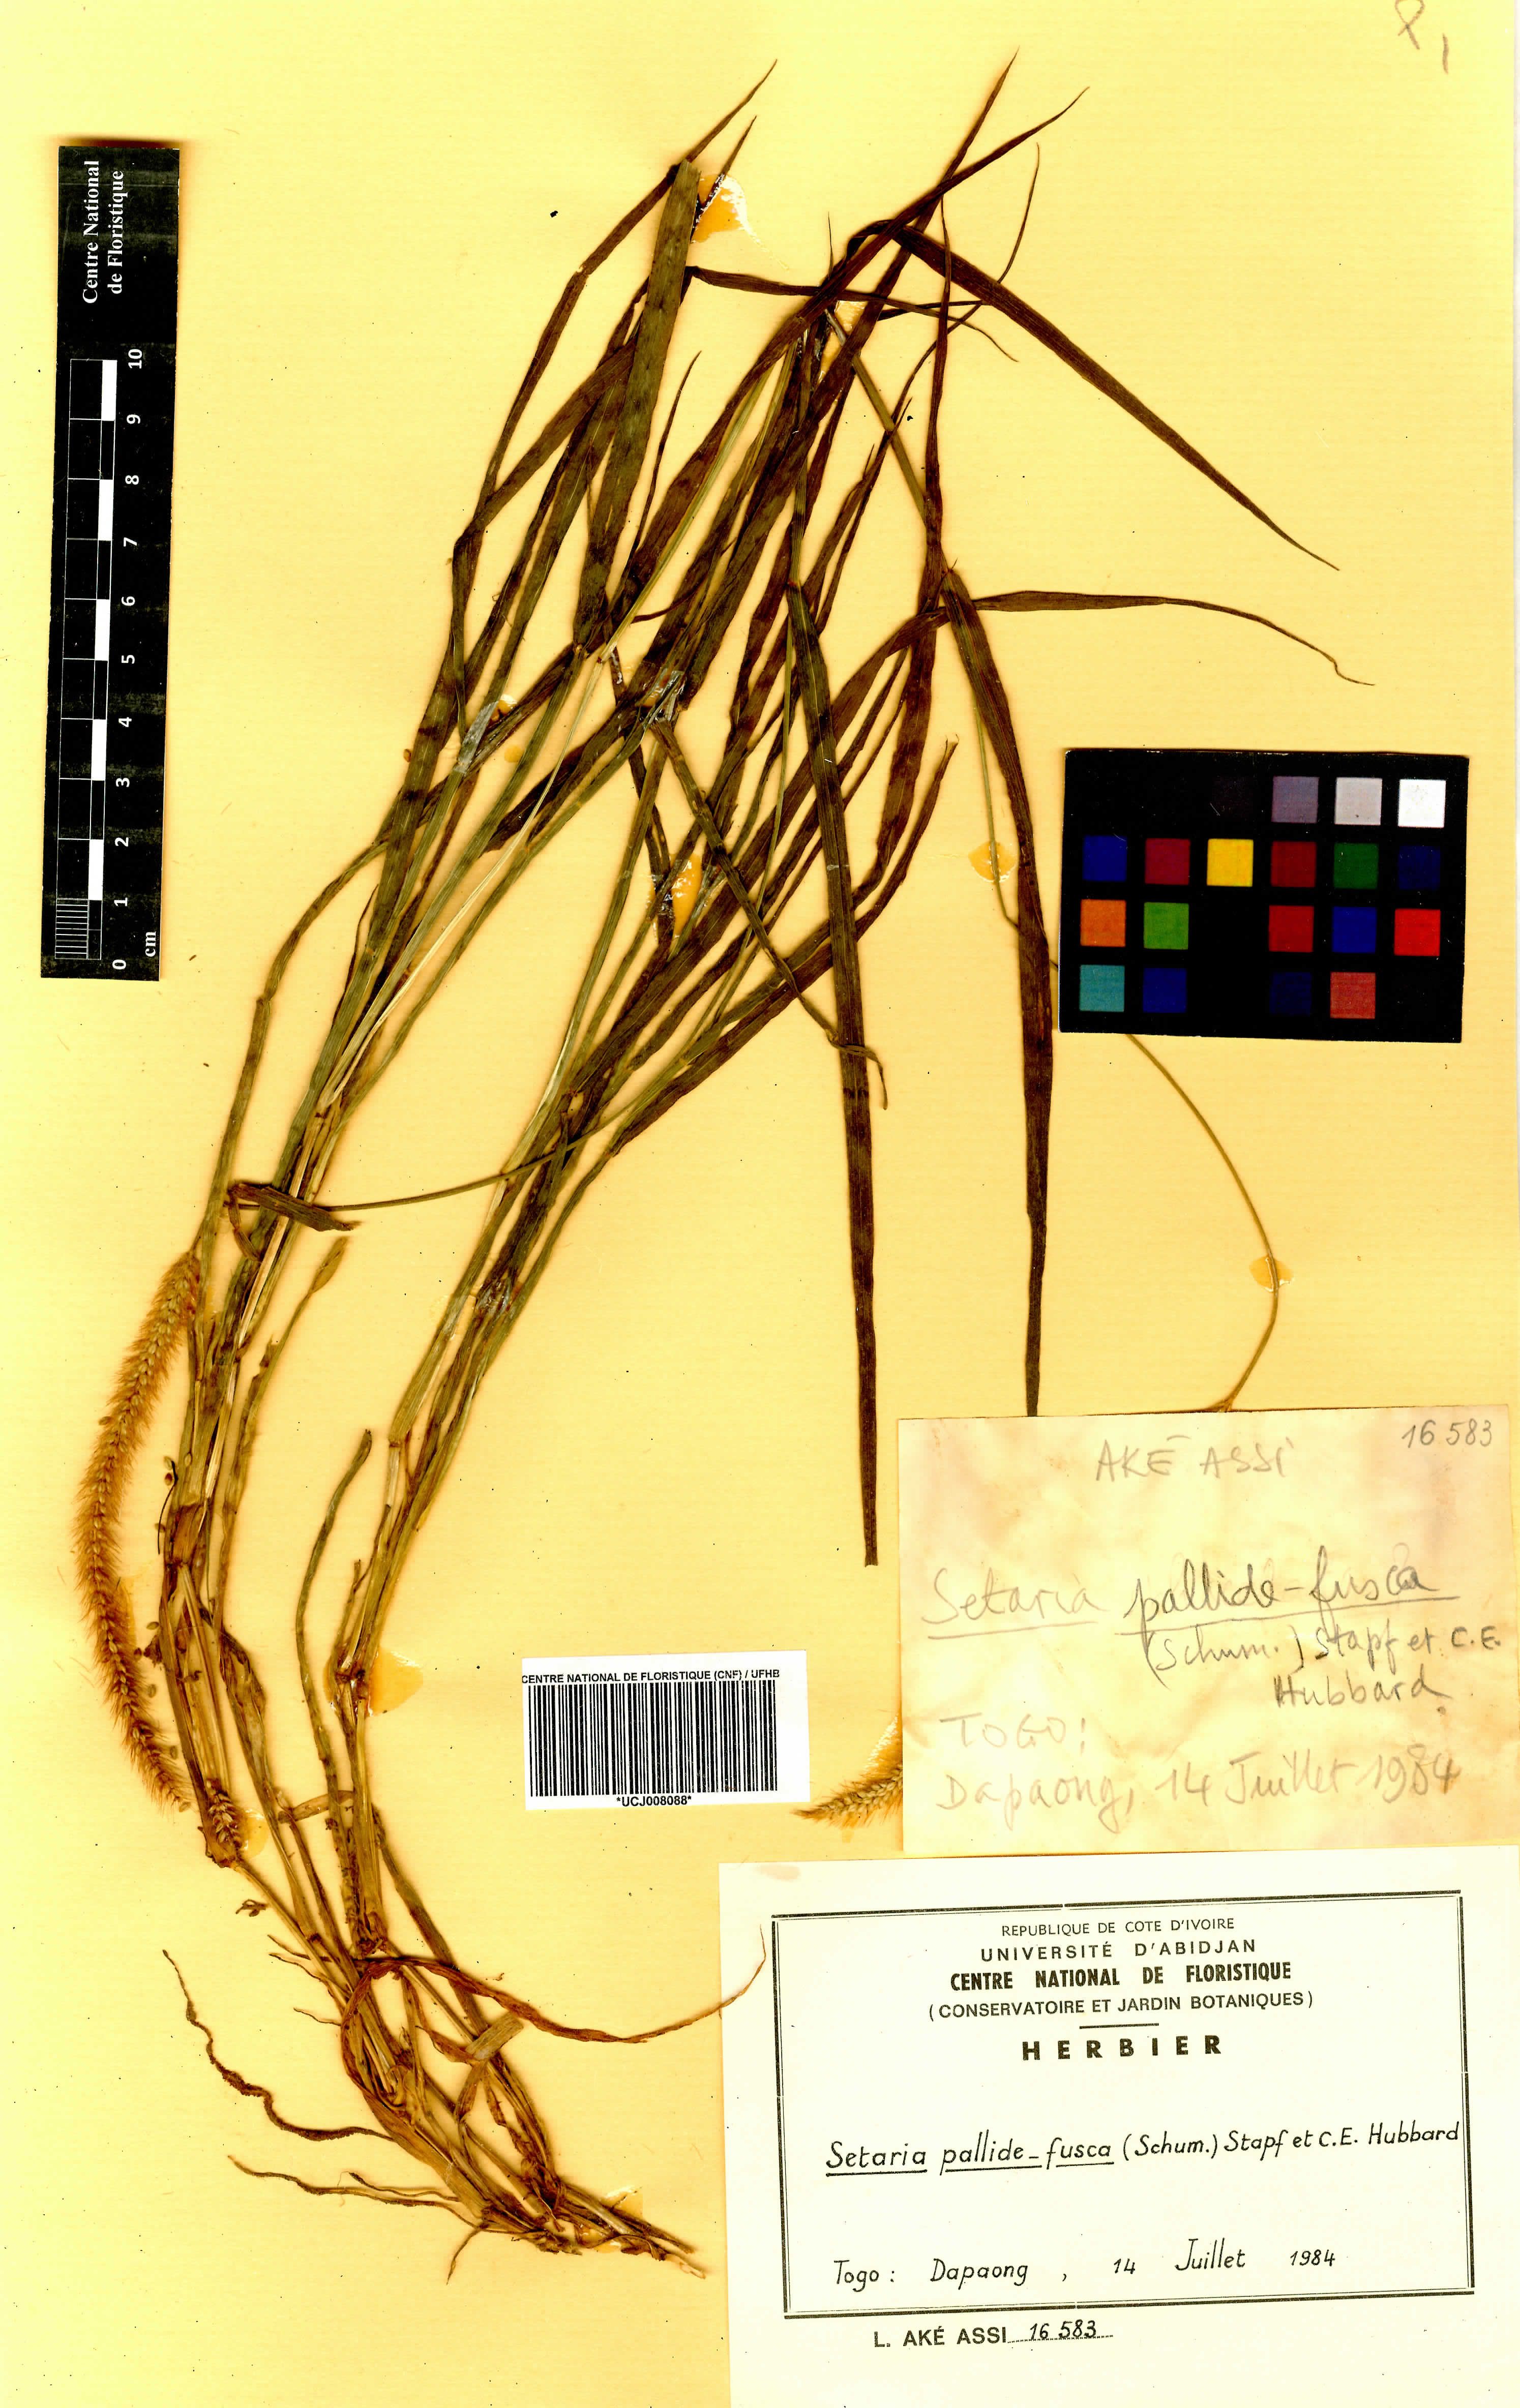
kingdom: Plantae
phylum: Tracheophyta
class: Liliopsida
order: Poales
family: Poaceae
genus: Setaria
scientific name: Setaria italica
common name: Foxtail bristle-grass
